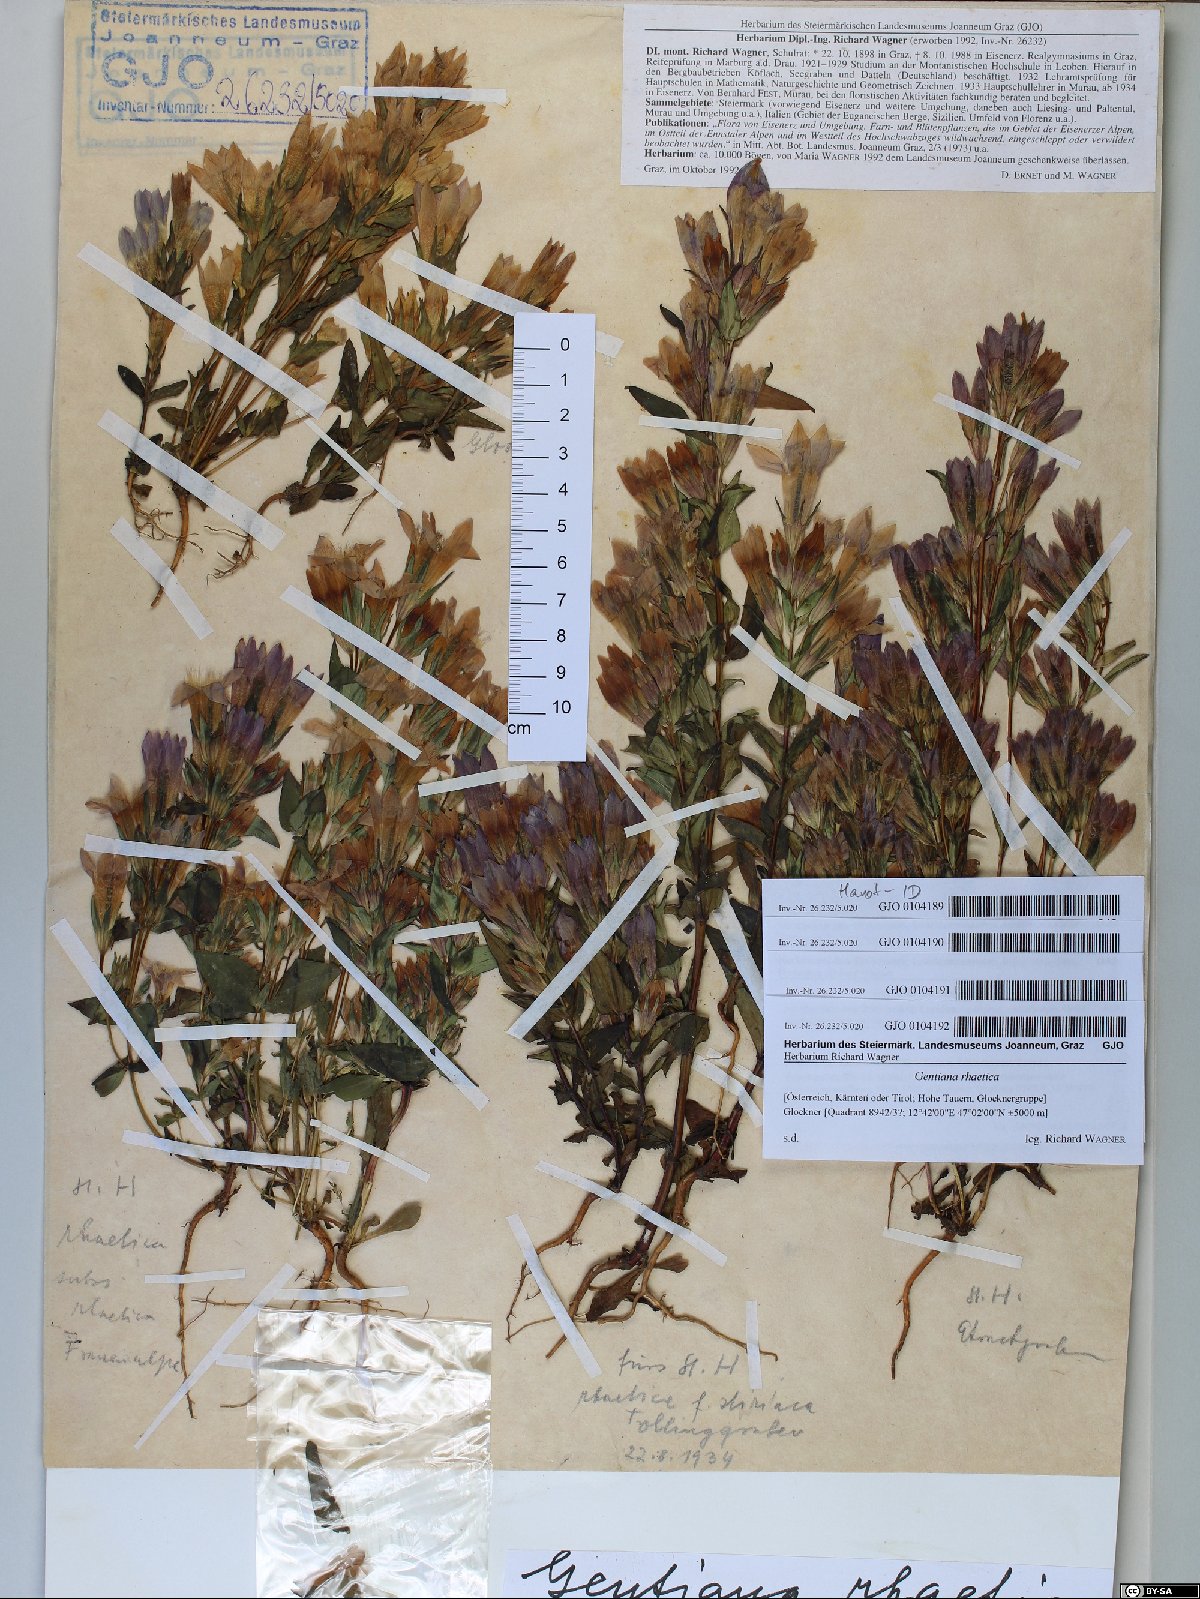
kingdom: Plantae
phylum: Tracheophyta
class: Magnoliopsida
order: Gentianales
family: Gentianaceae
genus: Gentianella
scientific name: Gentianella rhaetica
